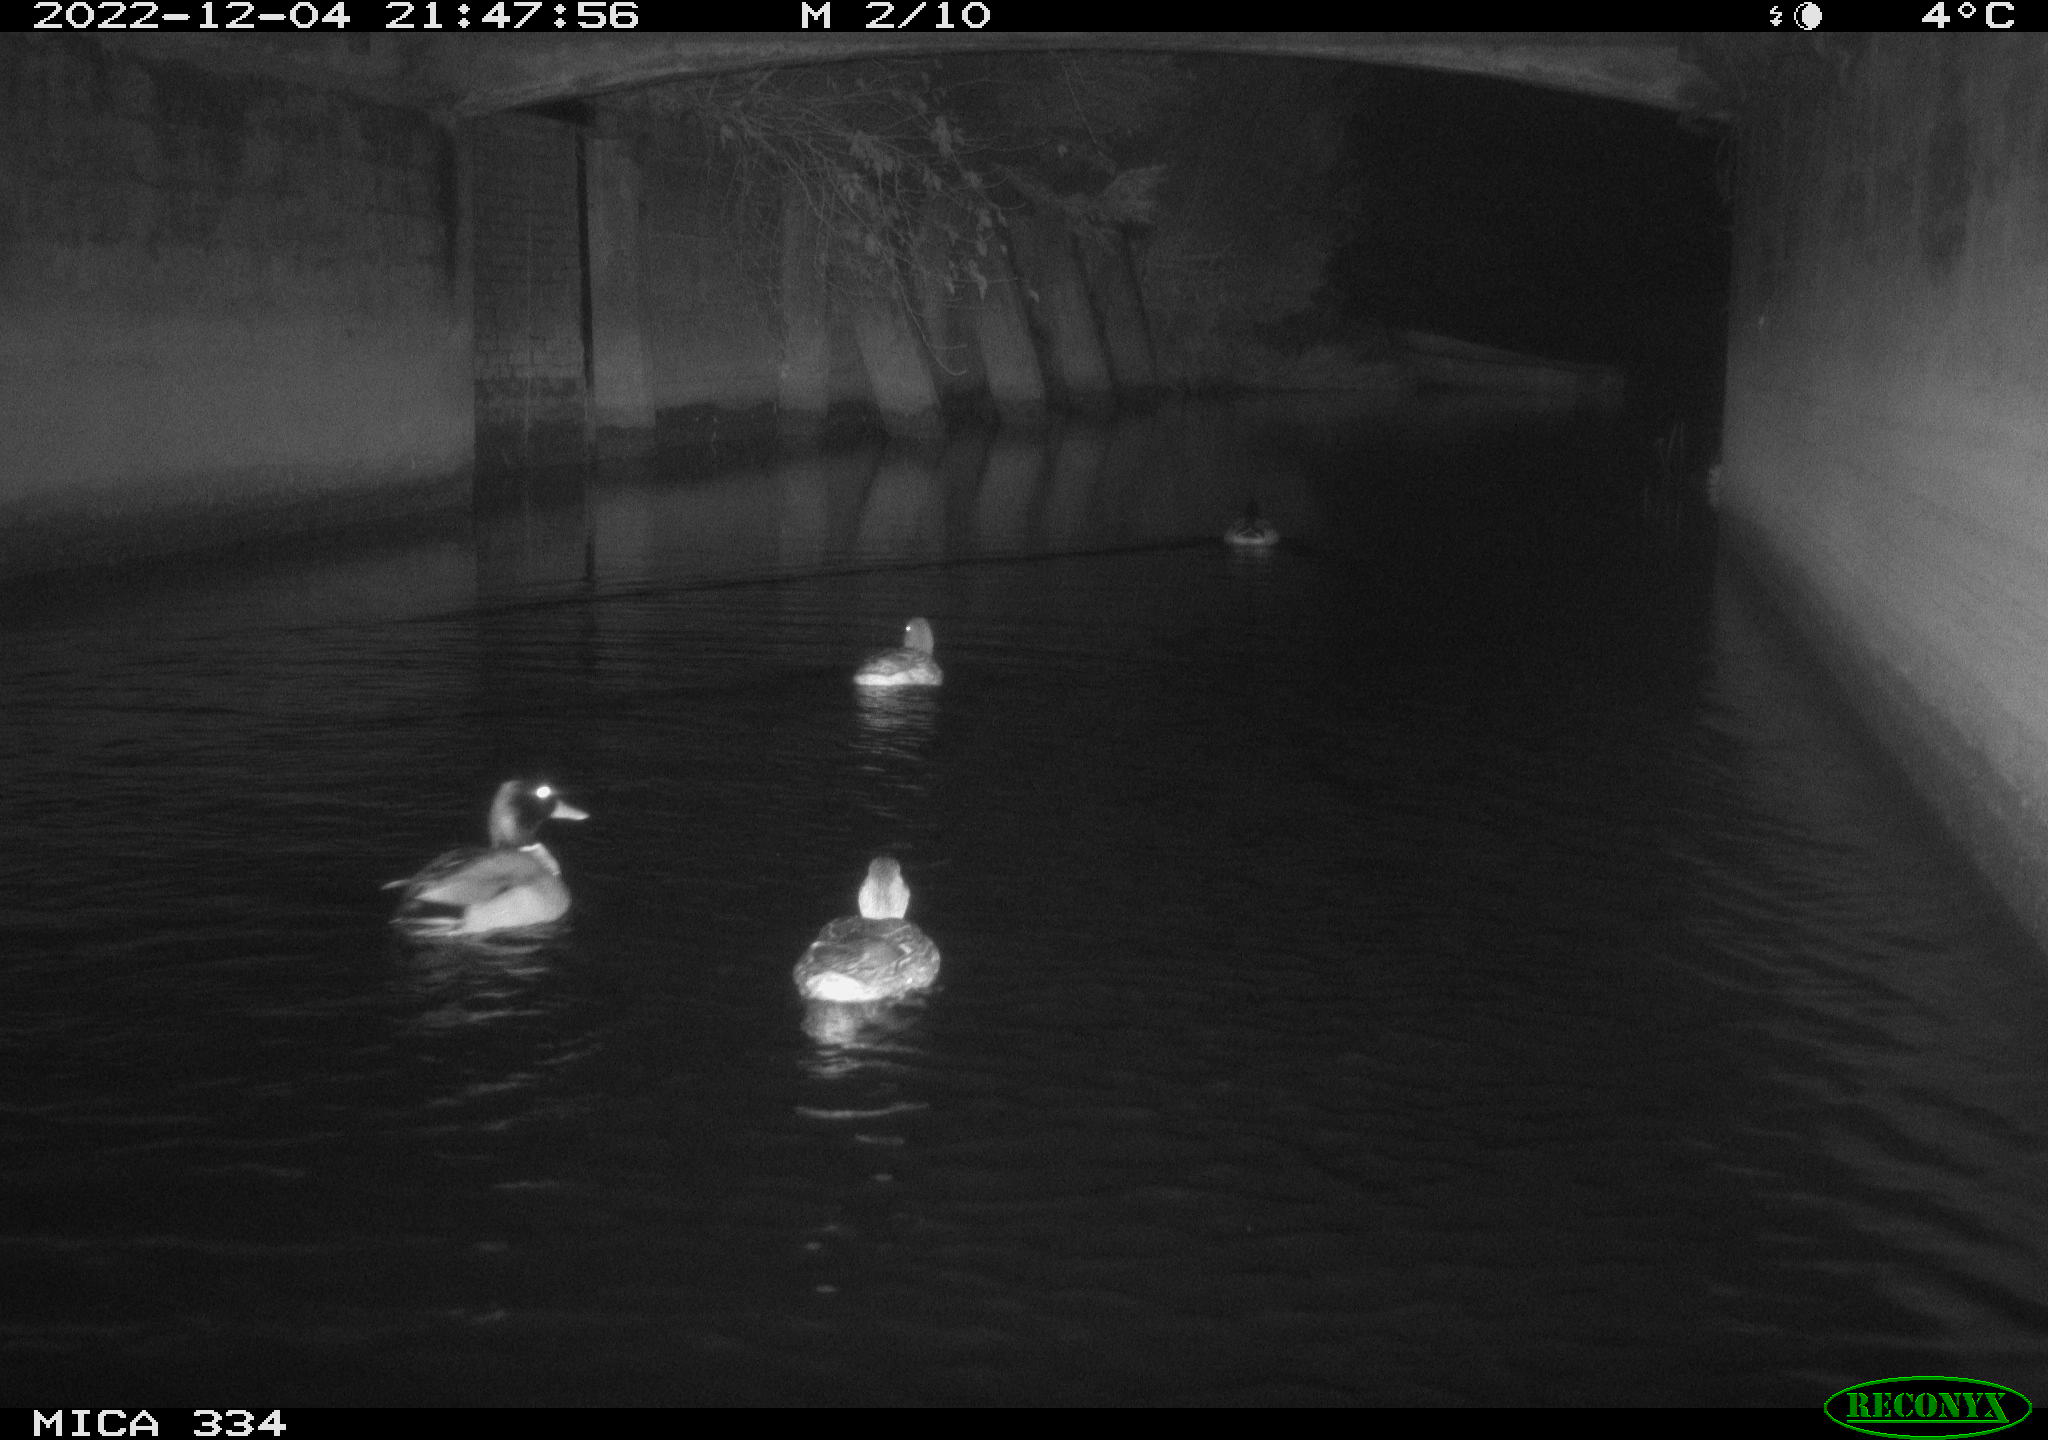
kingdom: Animalia
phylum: Chordata
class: Aves
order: Anseriformes
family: Anatidae
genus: Anas
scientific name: Anas
